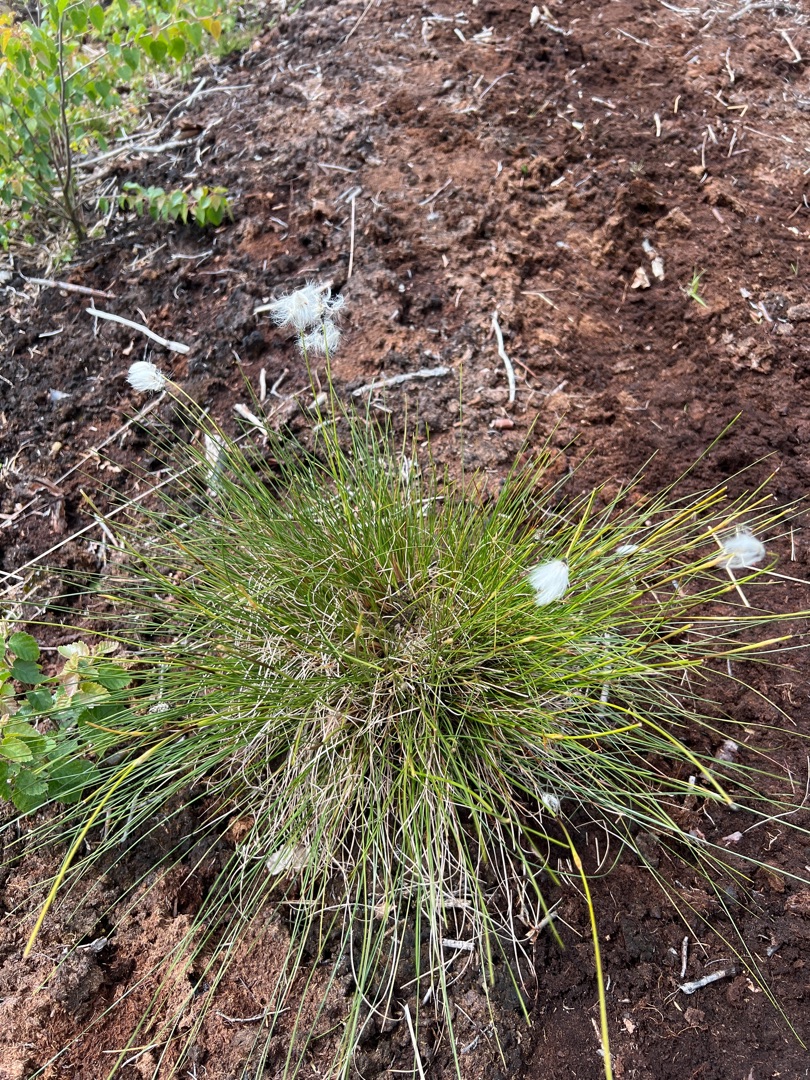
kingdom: Plantae
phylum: Tracheophyta
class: Liliopsida
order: Poales
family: Cyperaceae
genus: Eriophorum
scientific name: Eriophorum vaginatum
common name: Tue-kæruld
